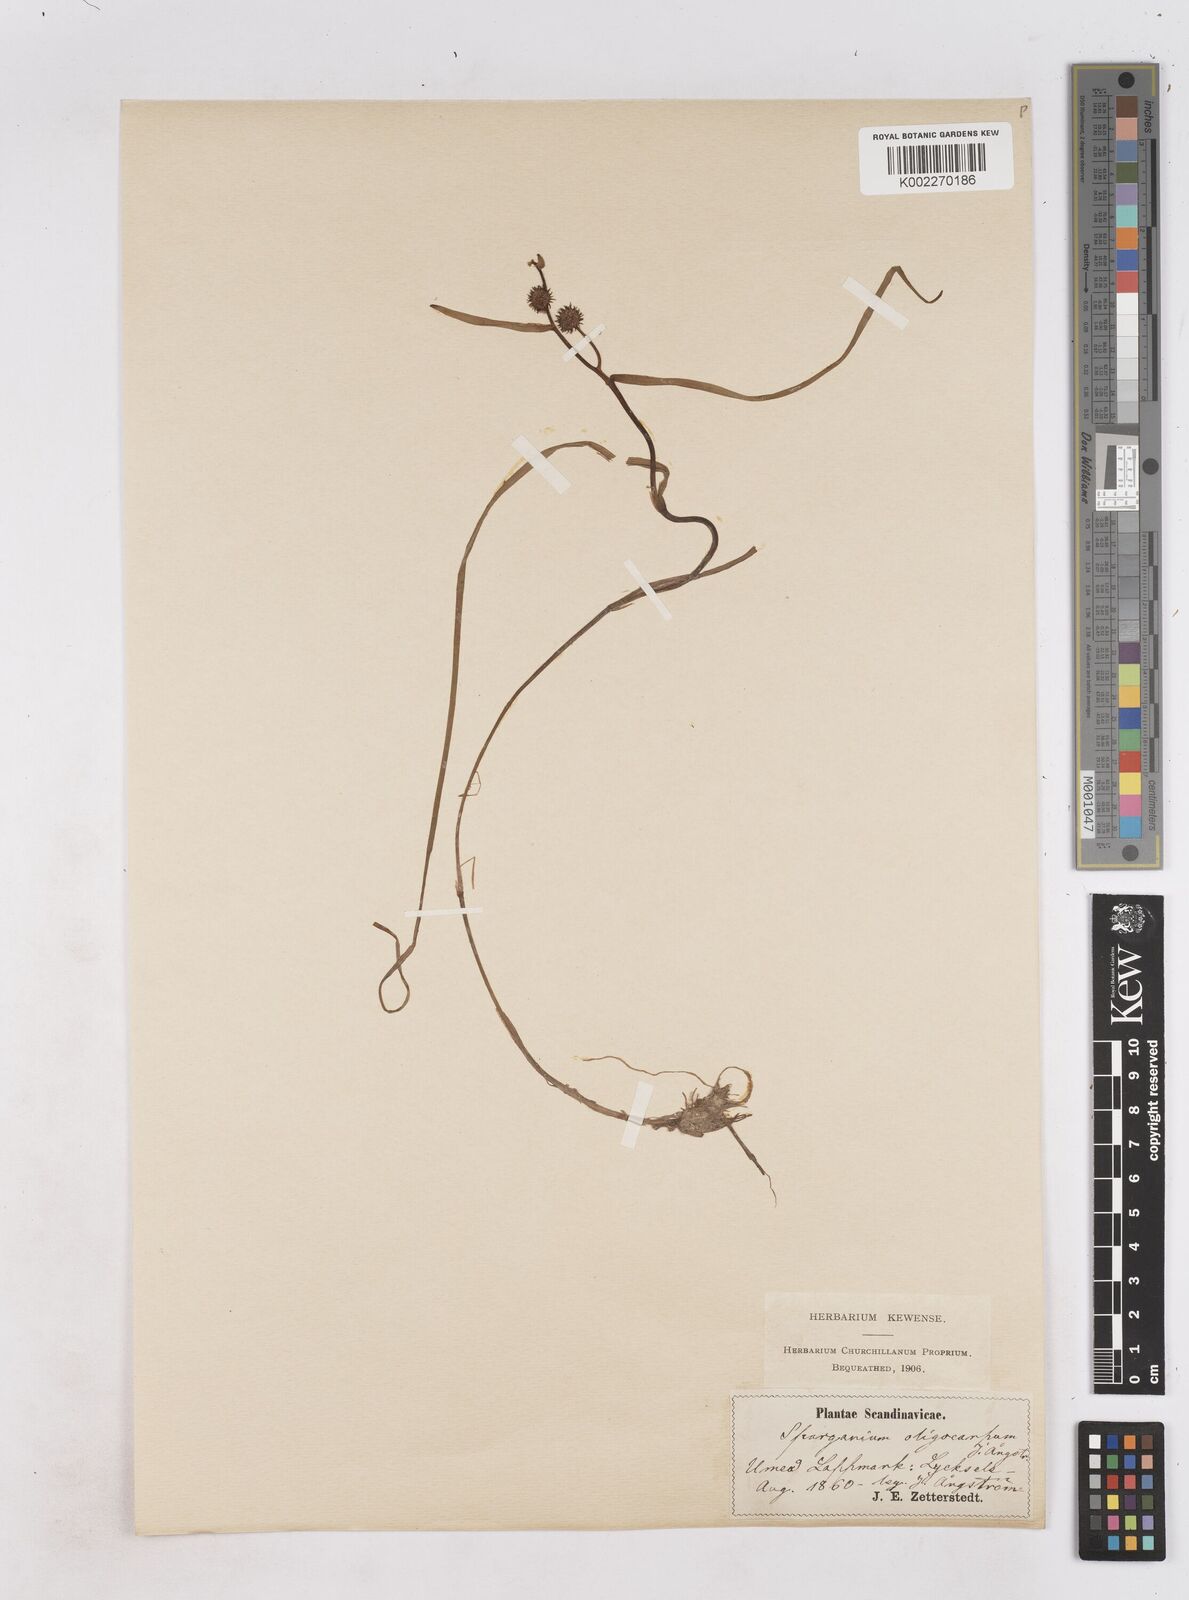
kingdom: Plantae
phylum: Tracheophyta
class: Liliopsida
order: Poales
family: Typhaceae
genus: Sparganium
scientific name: Sparganium oligocarpon
